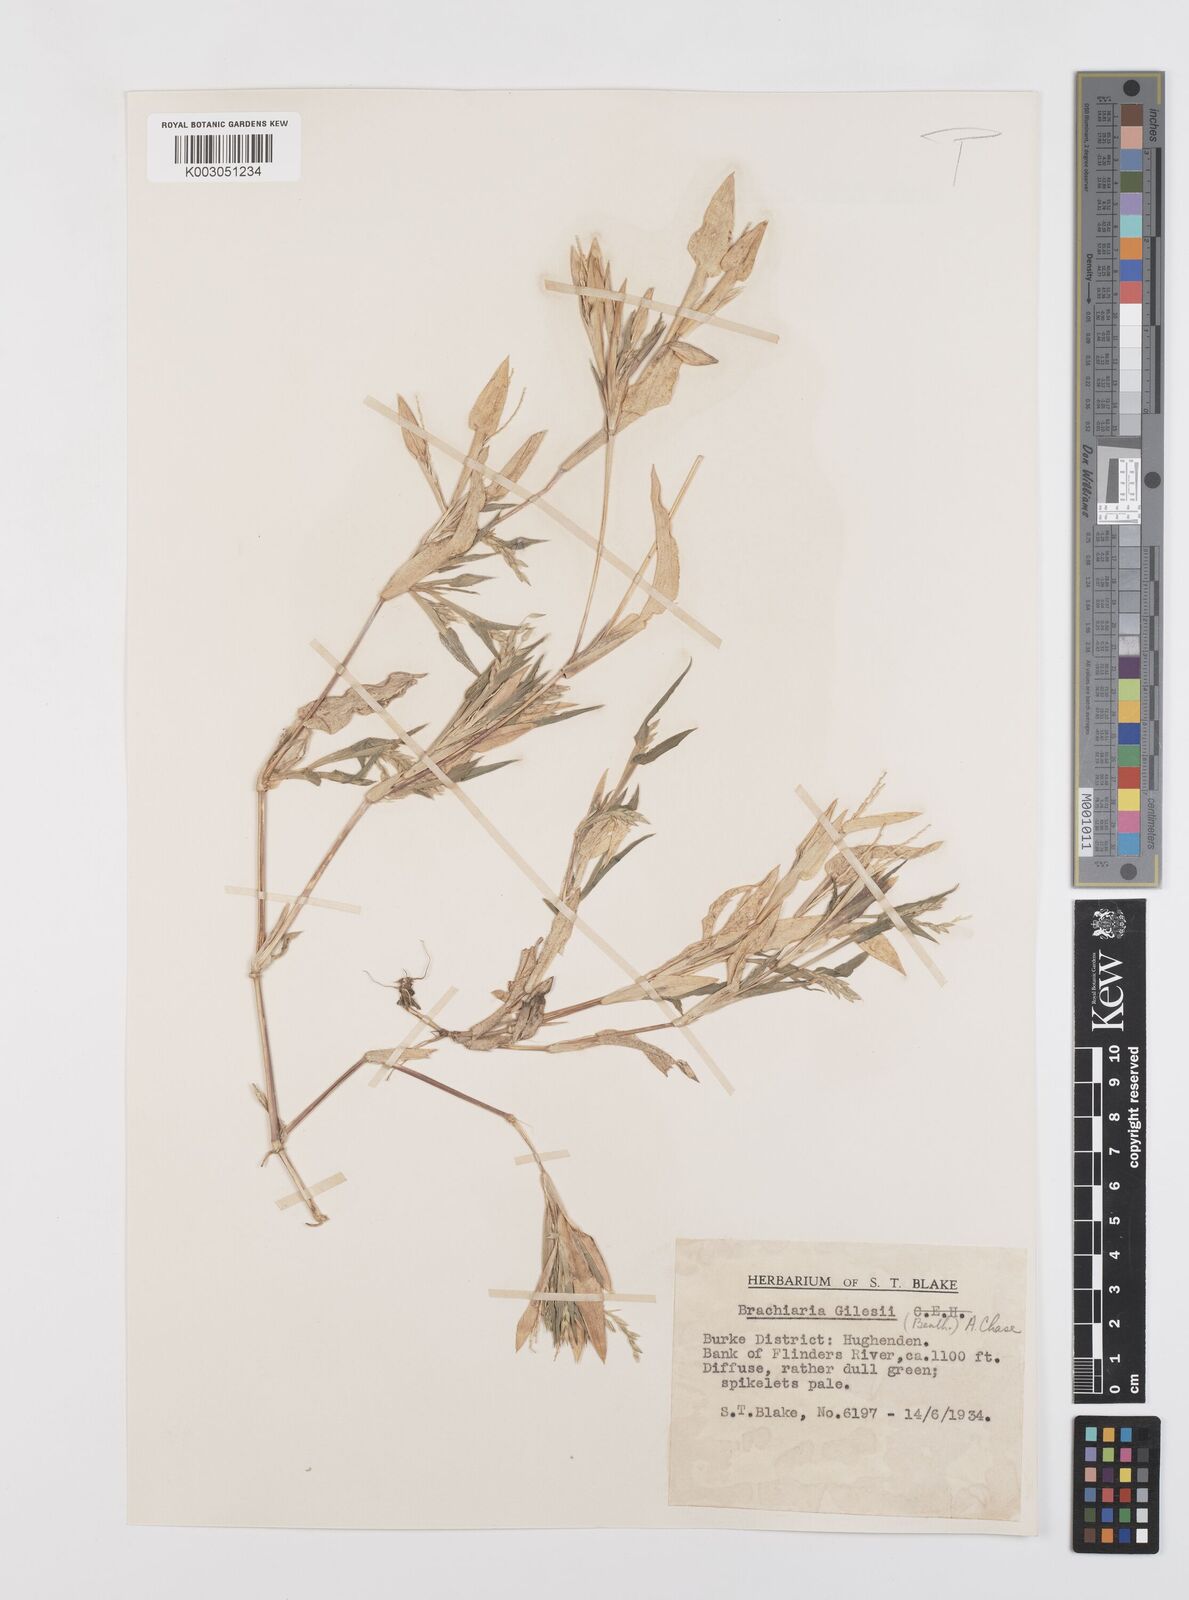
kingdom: Plantae
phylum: Tracheophyta
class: Liliopsida
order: Poales
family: Poaceae
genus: Urochloa
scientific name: Urochloa gilesii
